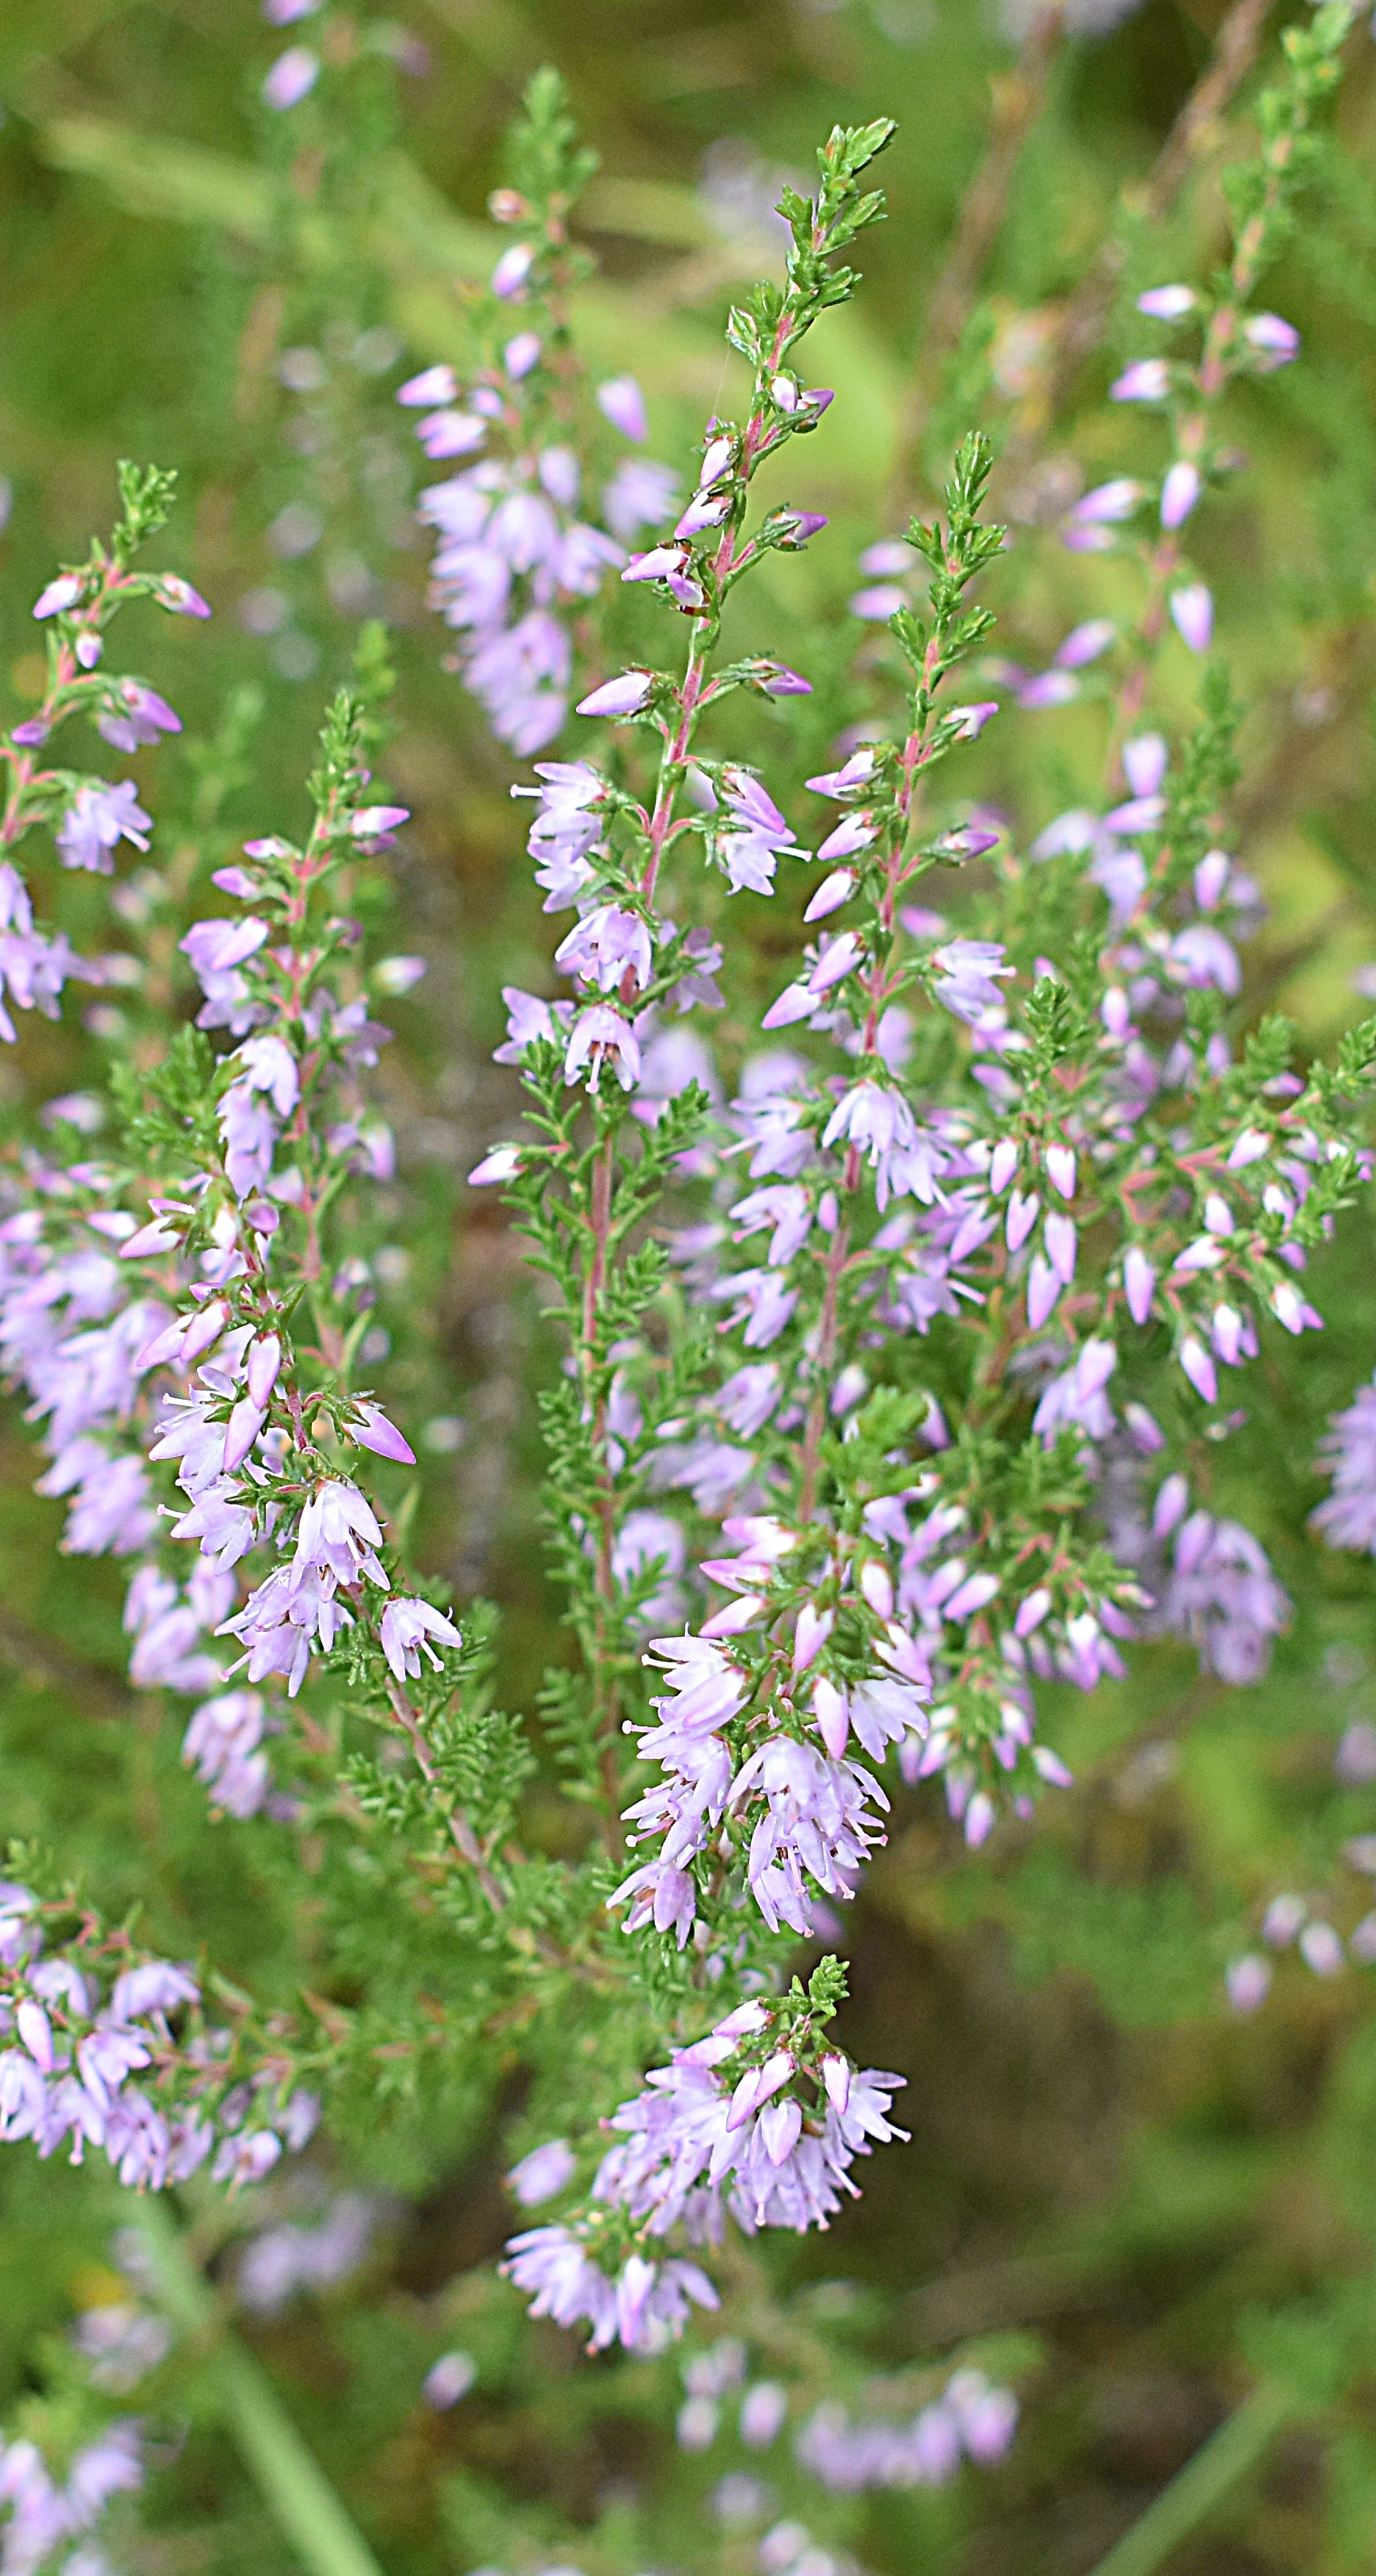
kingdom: Plantae
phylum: Tracheophyta
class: Magnoliopsida
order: Ericales
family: Ericaceae
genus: Calluna
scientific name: Calluna vulgaris
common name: Heather
